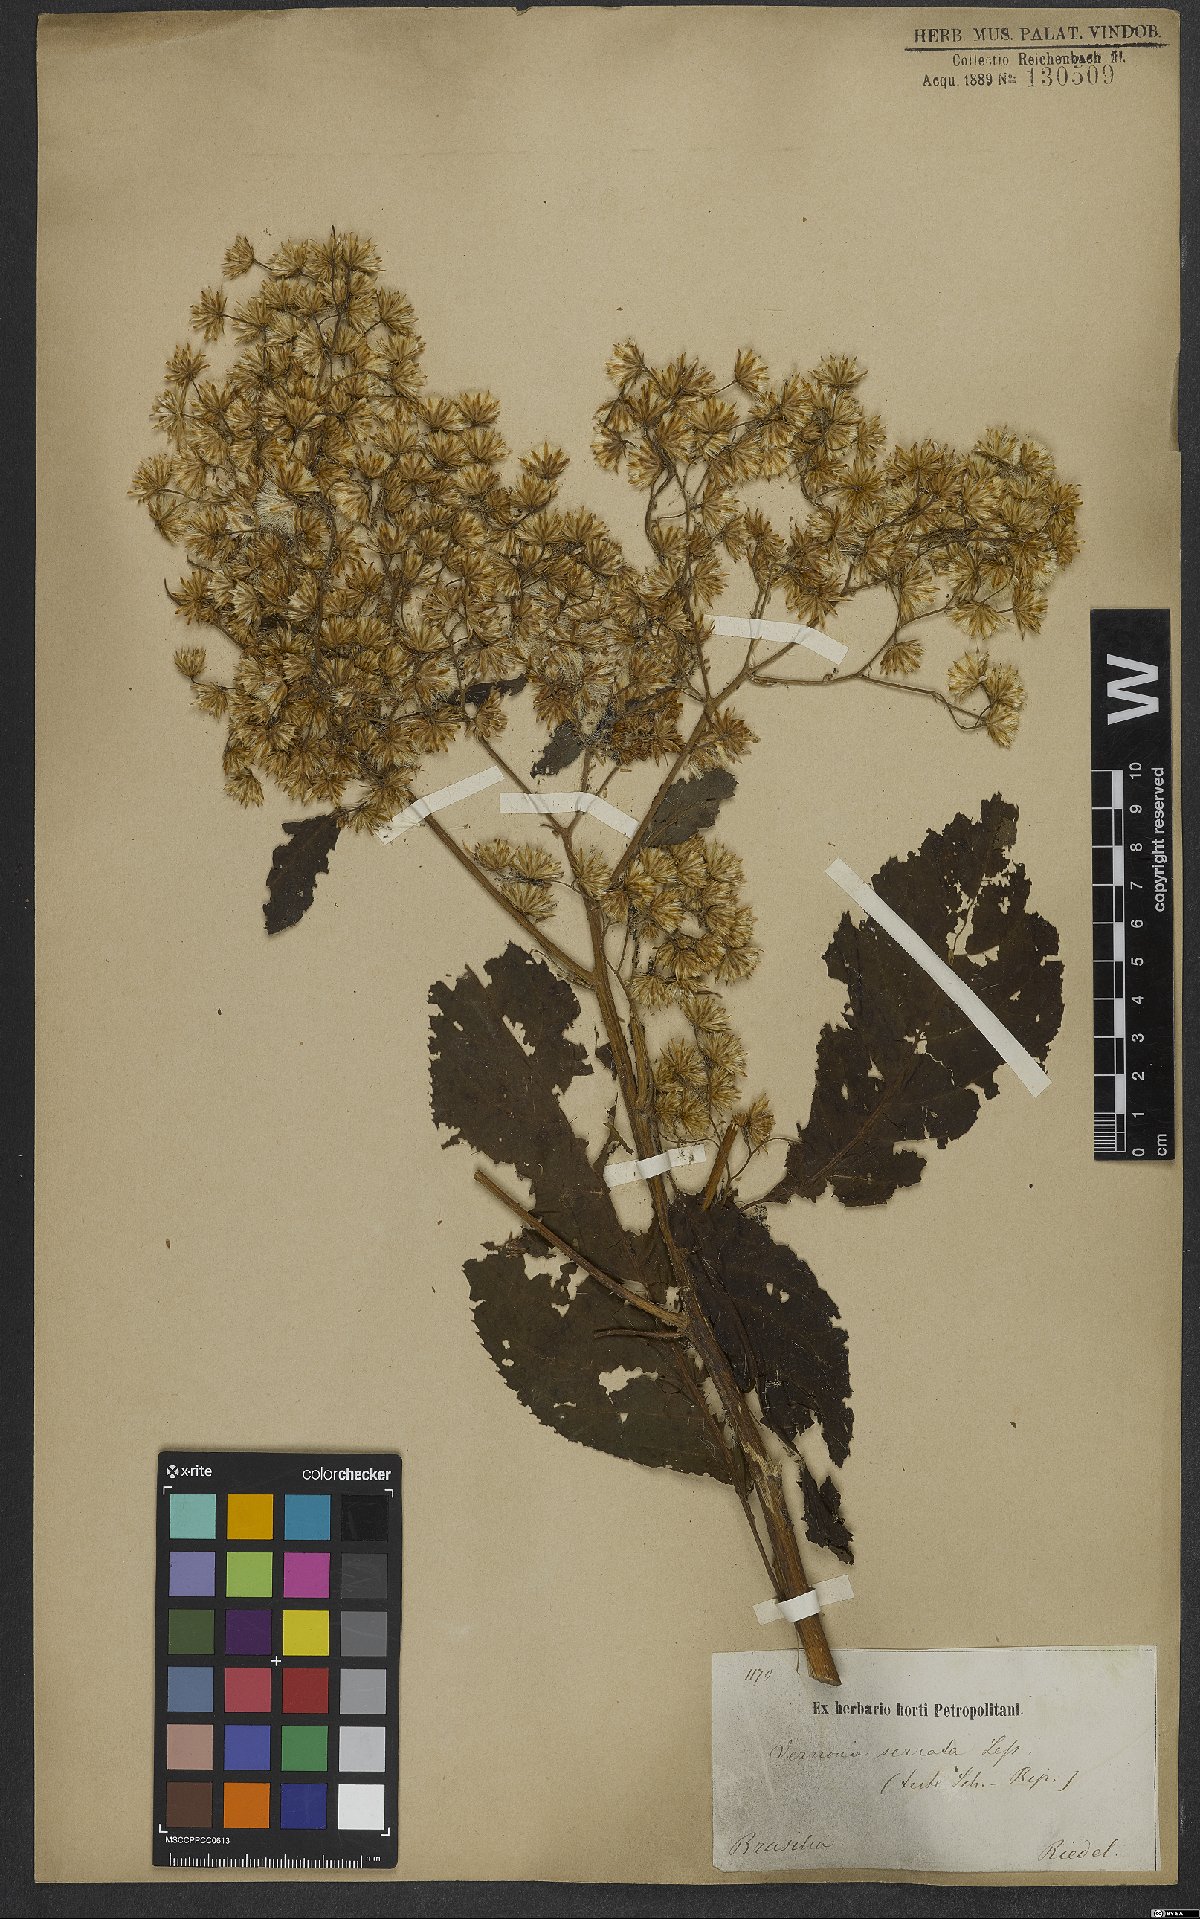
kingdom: Plantae
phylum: Tracheophyta
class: Magnoliopsida
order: Asterales
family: Asteraceae
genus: Dasyanthina
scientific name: Dasyanthina serrata
